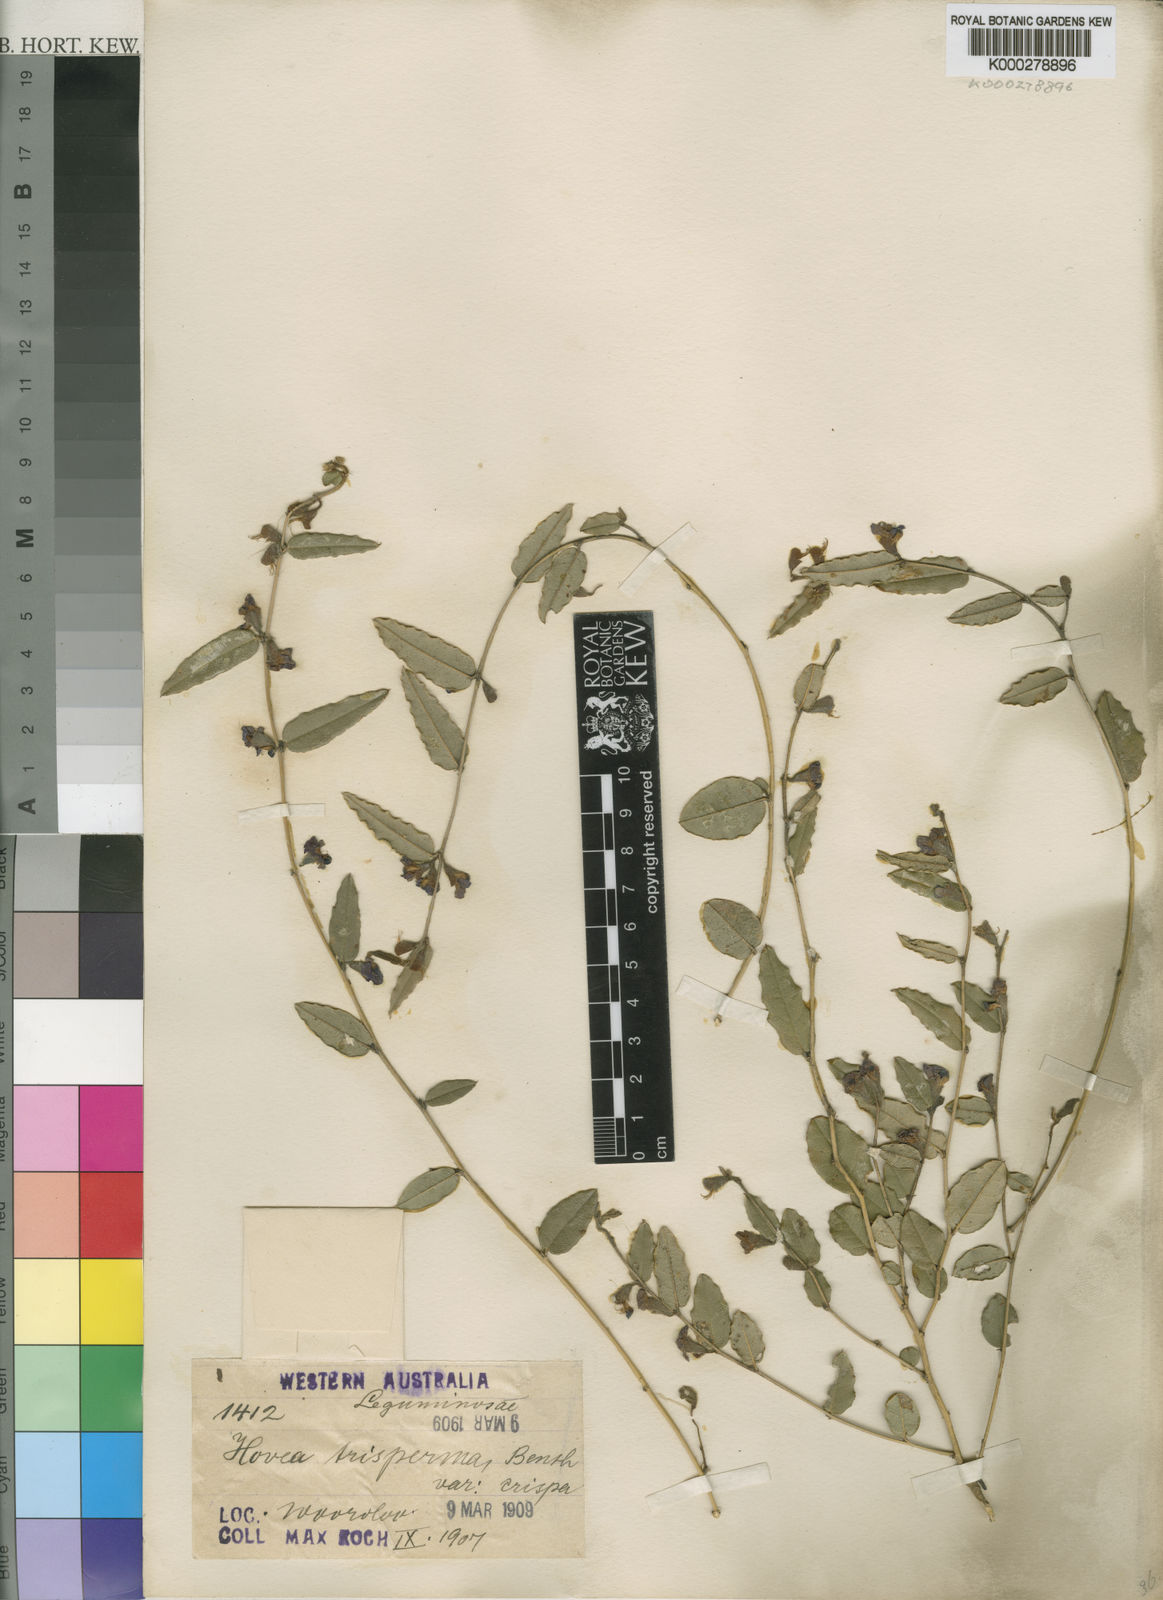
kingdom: Plantae
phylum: Tracheophyta
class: Magnoliopsida
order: Fabales
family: Fabaceae
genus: Hovea
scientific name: Hovea trisperma
